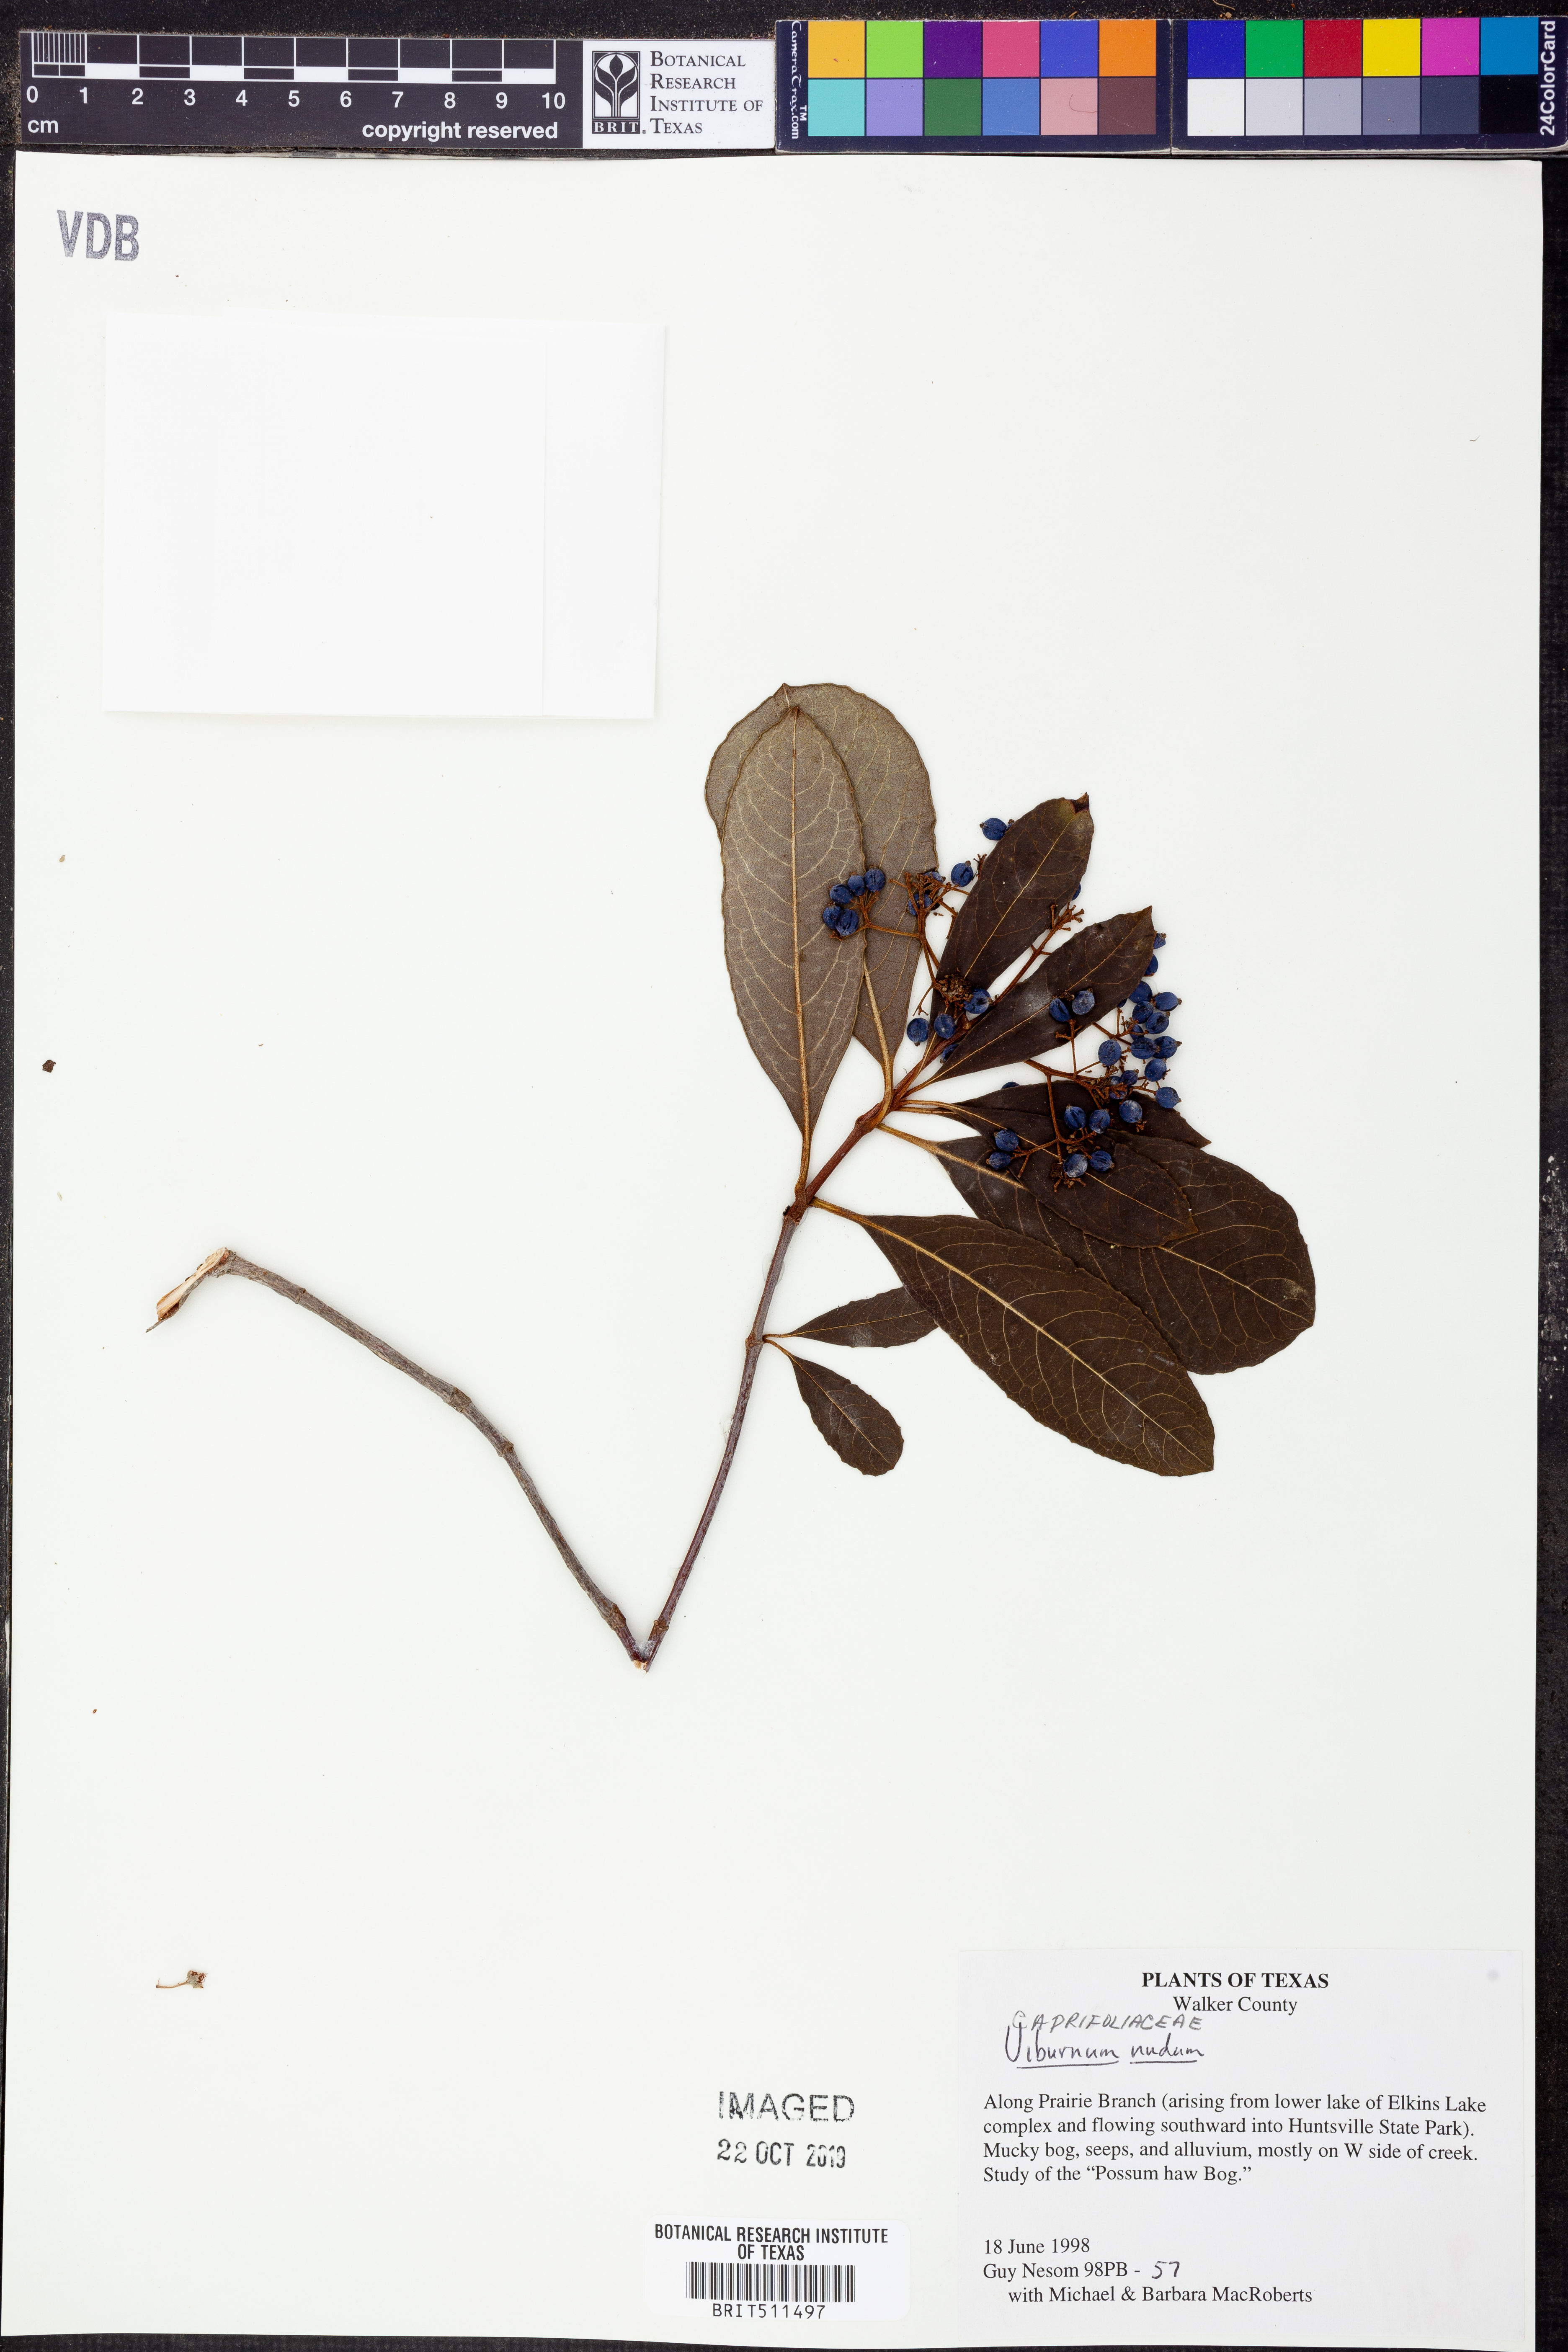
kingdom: Plantae
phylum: Tracheophyta
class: Magnoliopsida
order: Dipsacales
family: Viburnaceae
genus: Viburnum
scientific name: Viburnum nudum
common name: Possum haw
